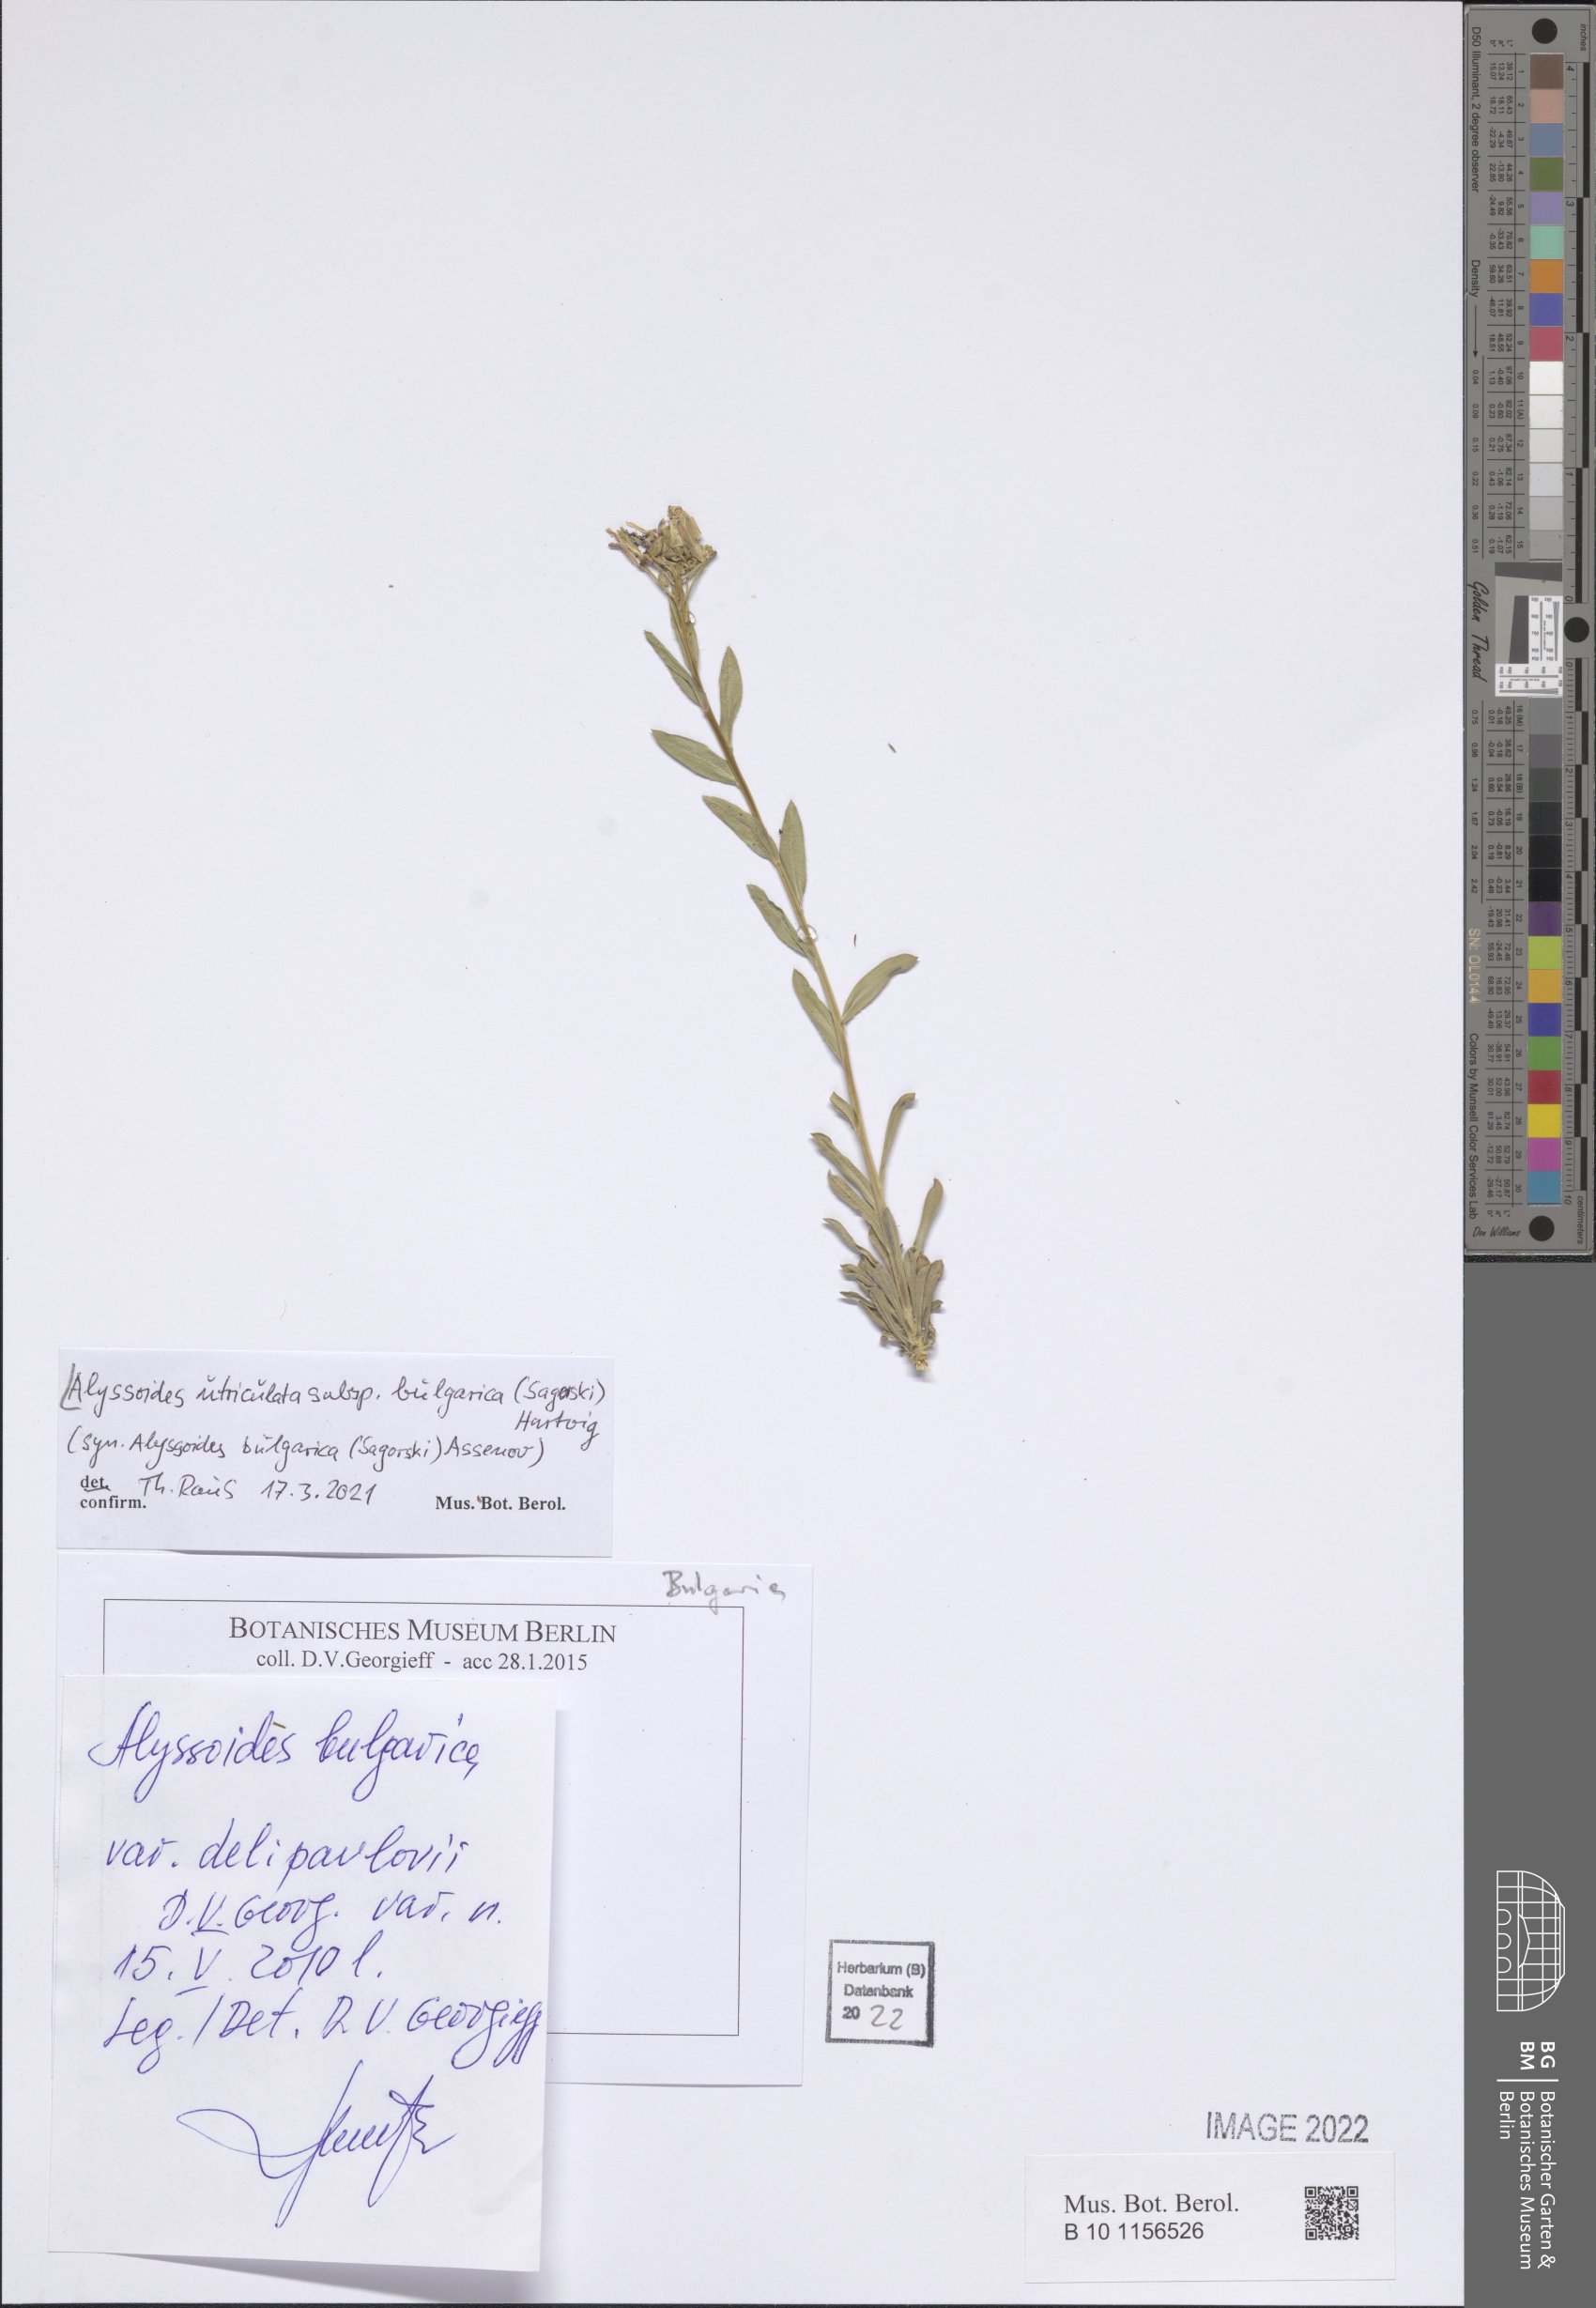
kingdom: Plantae
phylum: Tracheophyta
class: Magnoliopsida
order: Brassicales
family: Brassicaceae
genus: Alyssoides
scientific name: Alyssoides utriculata
